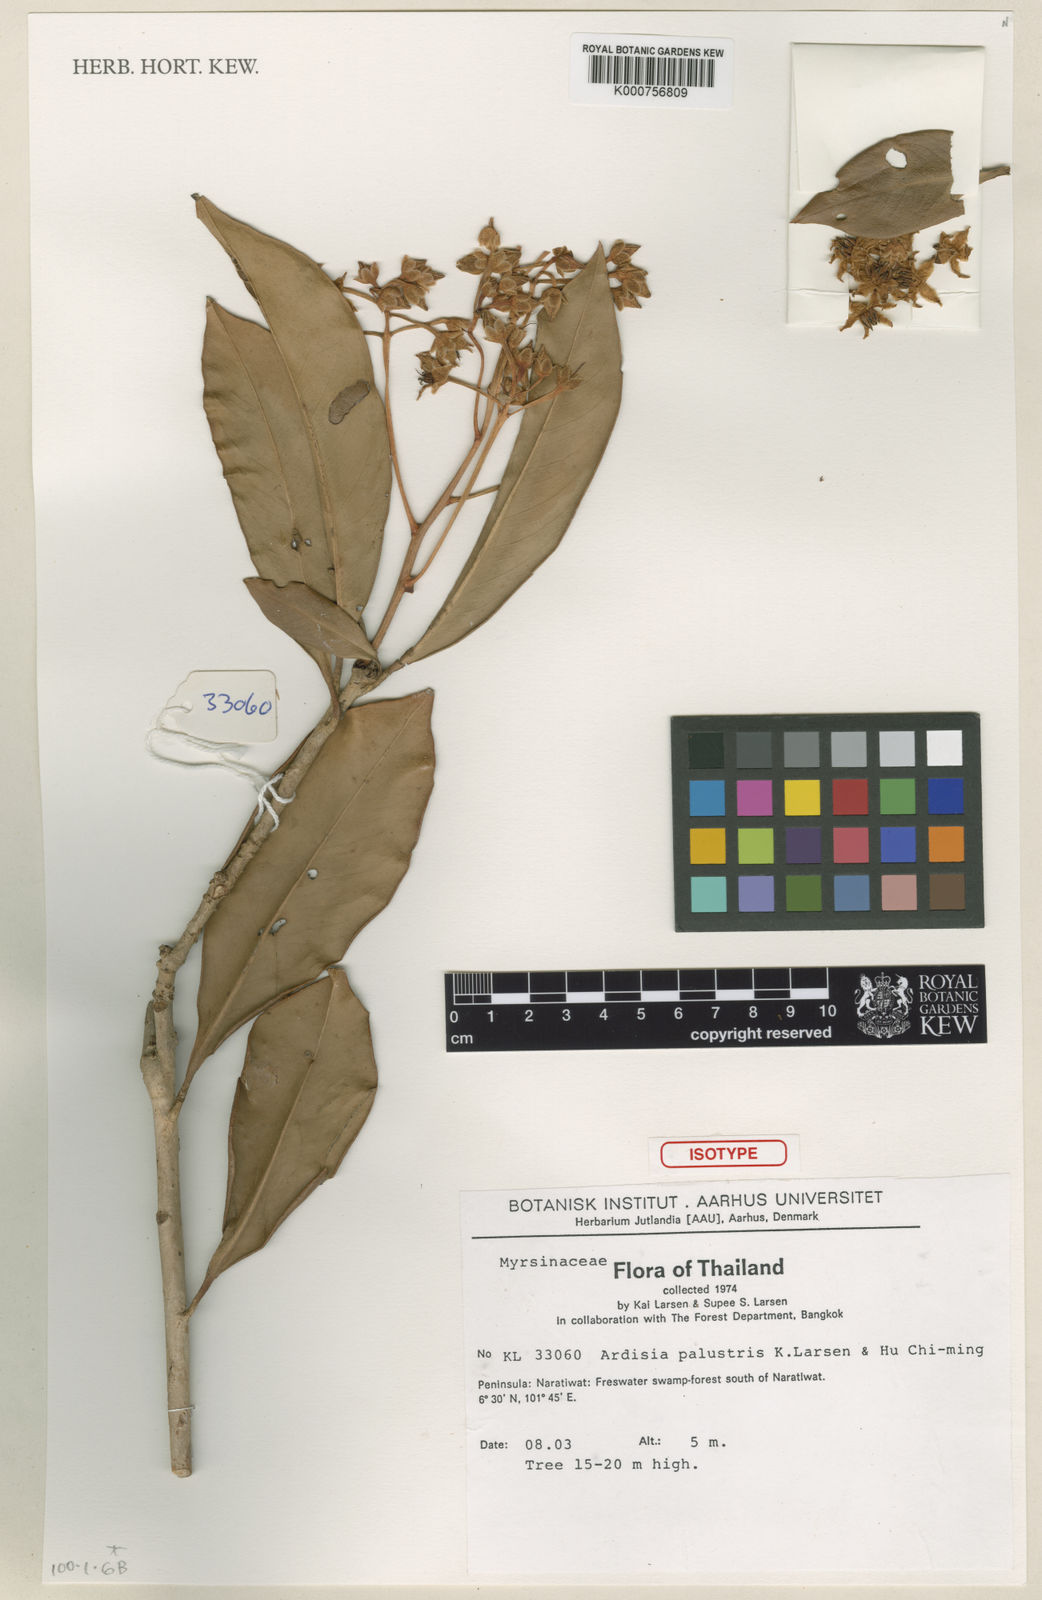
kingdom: Plantae
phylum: Tracheophyta
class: Magnoliopsida
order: Ericales
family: Primulaceae
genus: Ardisia
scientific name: Ardisia palustris
